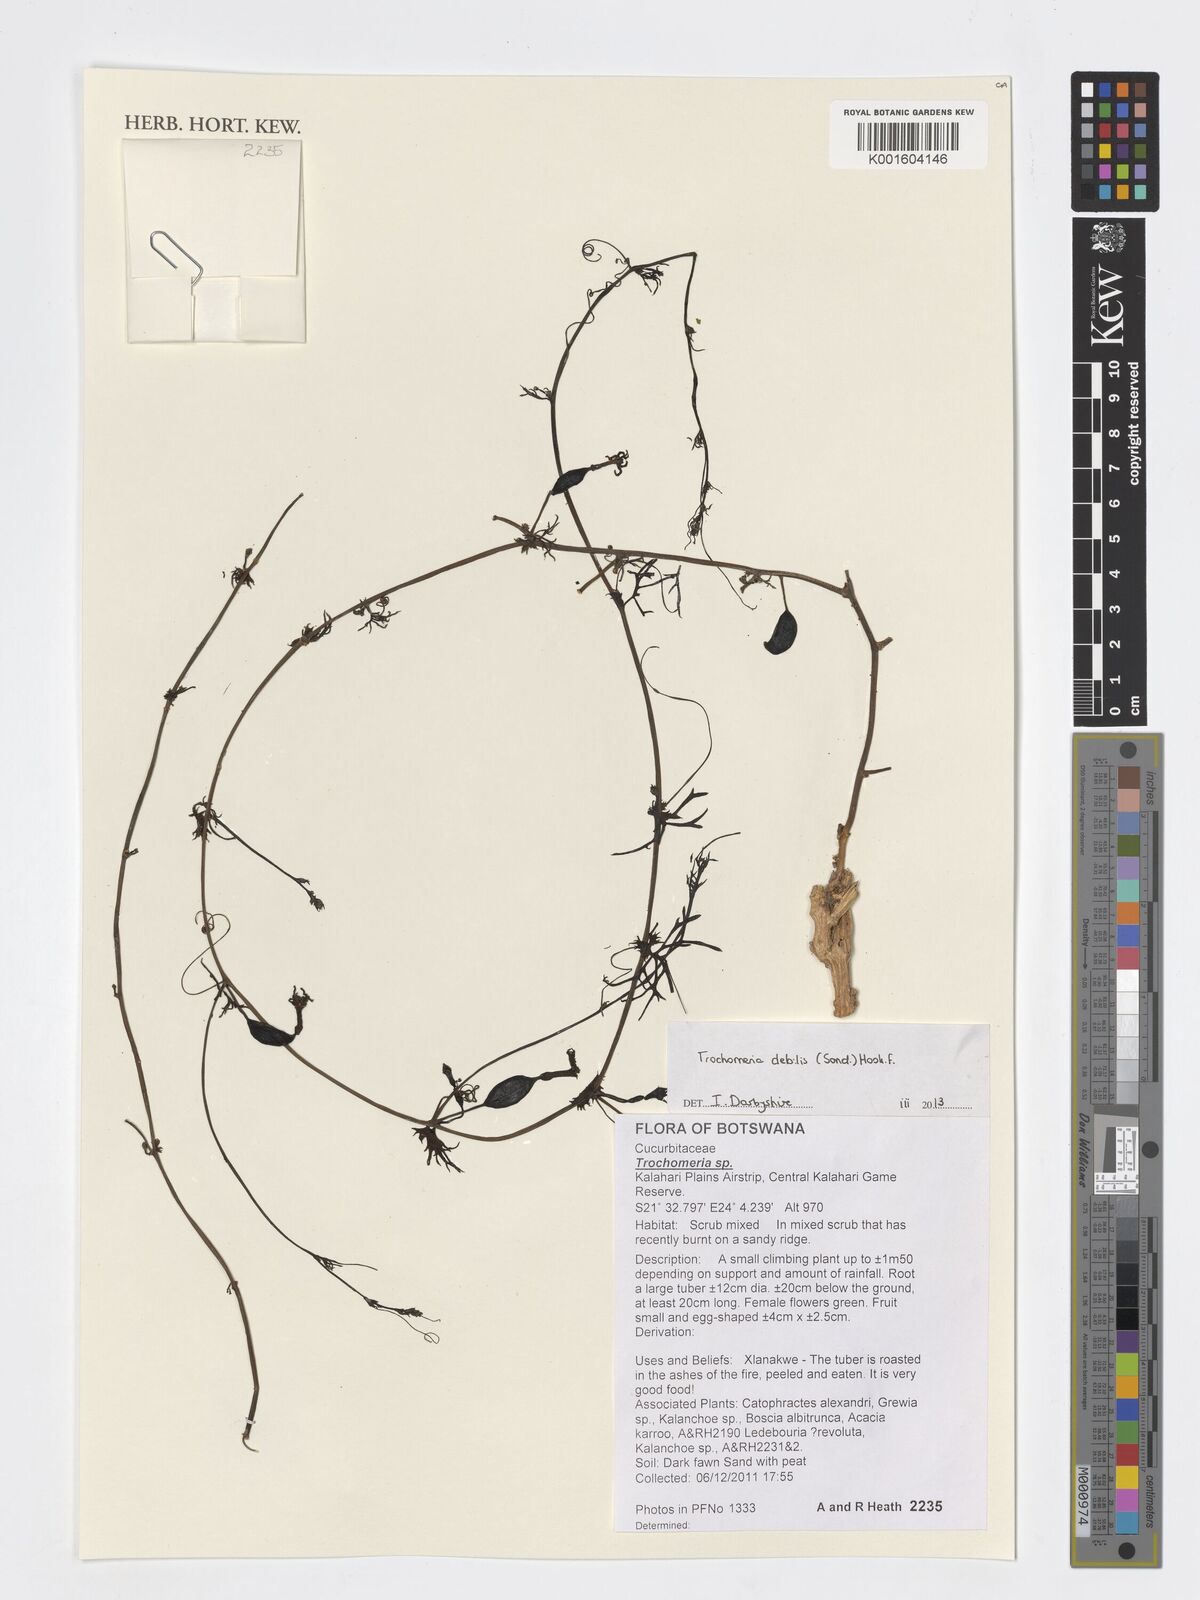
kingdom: Plantae
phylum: Tracheophyta
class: Magnoliopsida
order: Cucurbitales
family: Cucurbitaceae
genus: Trochomeria
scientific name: Trochomeria debilis
